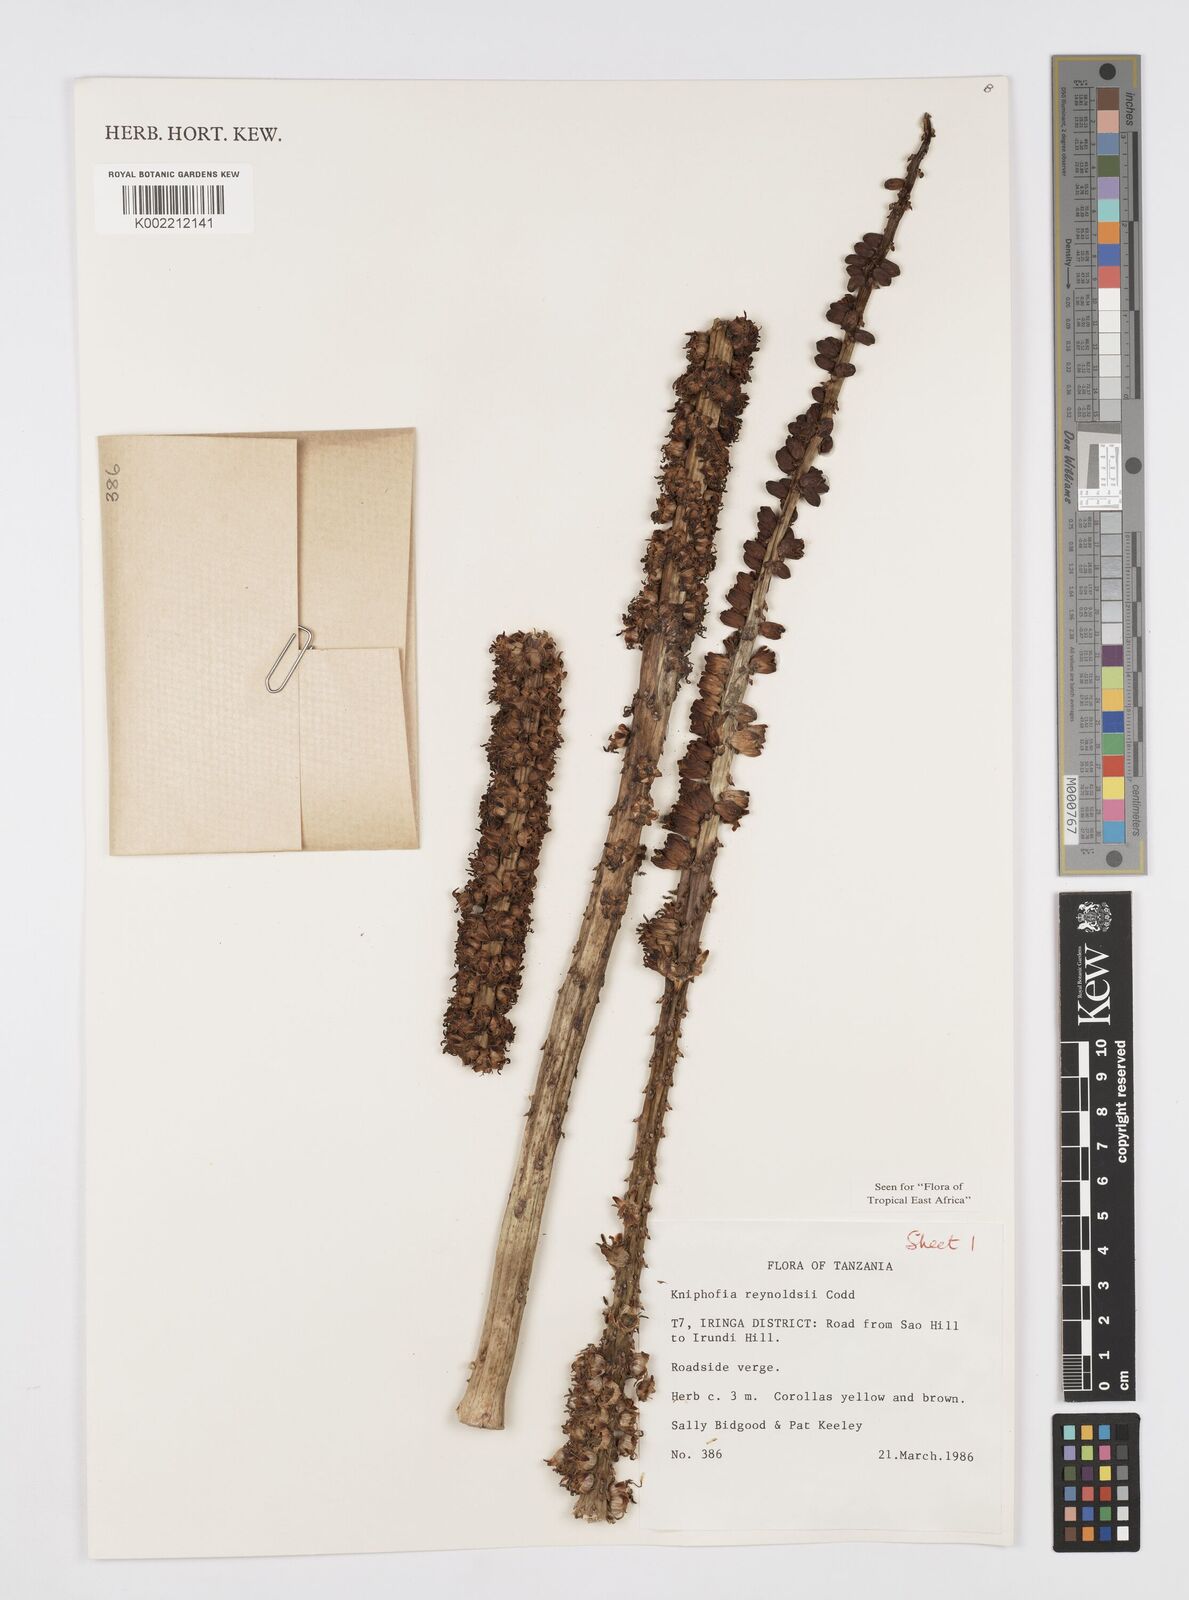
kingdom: Plantae
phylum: Tracheophyta
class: Liliopsida
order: Asparagales
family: Asphodelaceae
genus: Kniphofia
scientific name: Kniphofia reynoldsii
